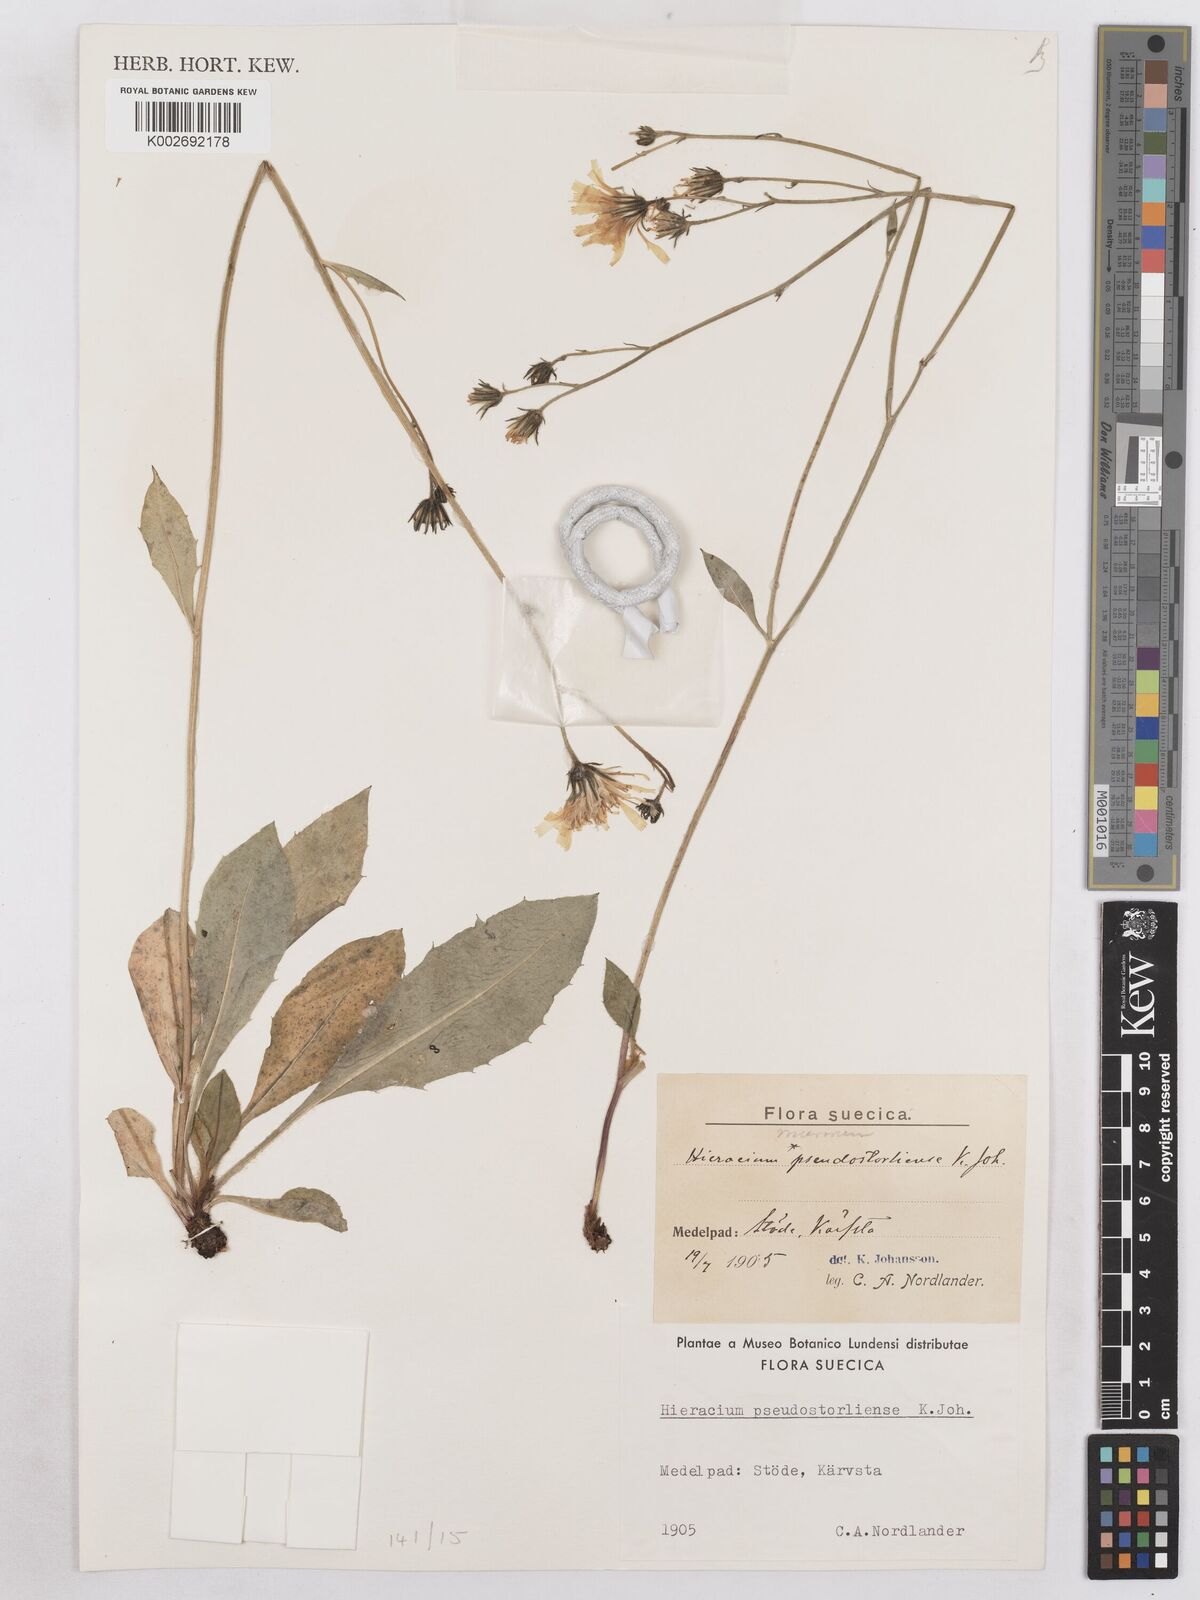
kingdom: Plantae
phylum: Tracheophyta
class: Magnoliopsida
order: Asterales
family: Asteraceae
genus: Hieracium
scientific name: Hieracium diaphanoides
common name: Fine-bracted hawkweed
